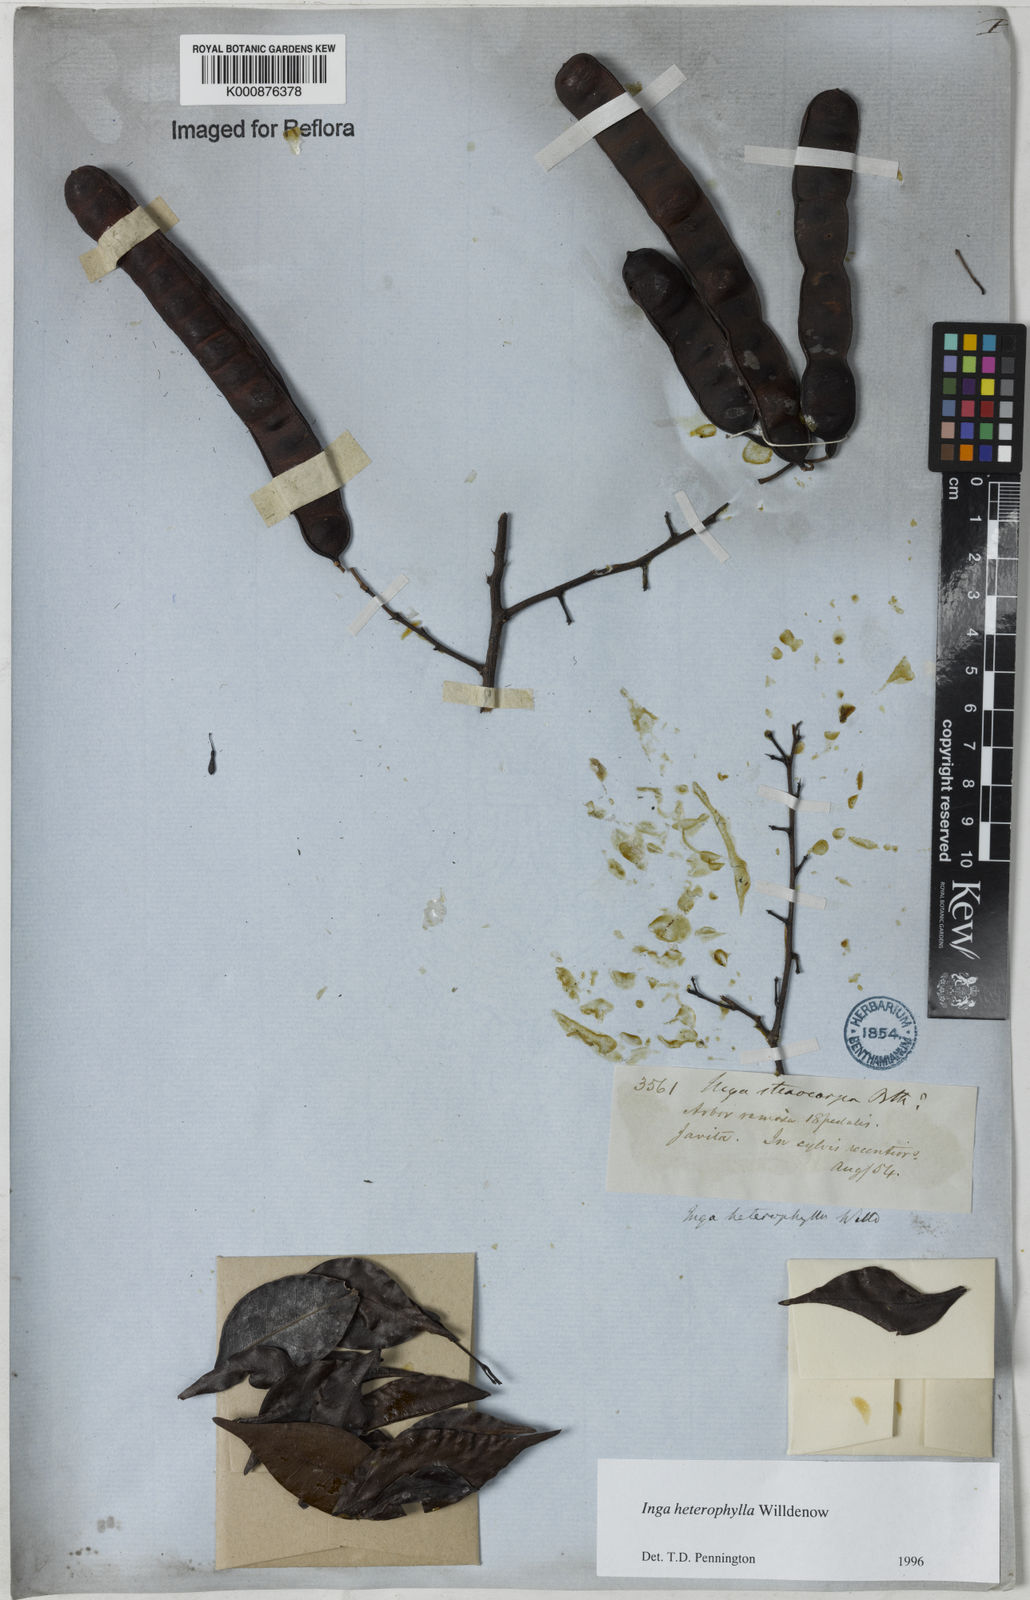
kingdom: Plantae
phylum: Tracheophyta
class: Magnoliopsida
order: Fabales
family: Fabaceae
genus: Inga
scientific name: Inga heterophylla
